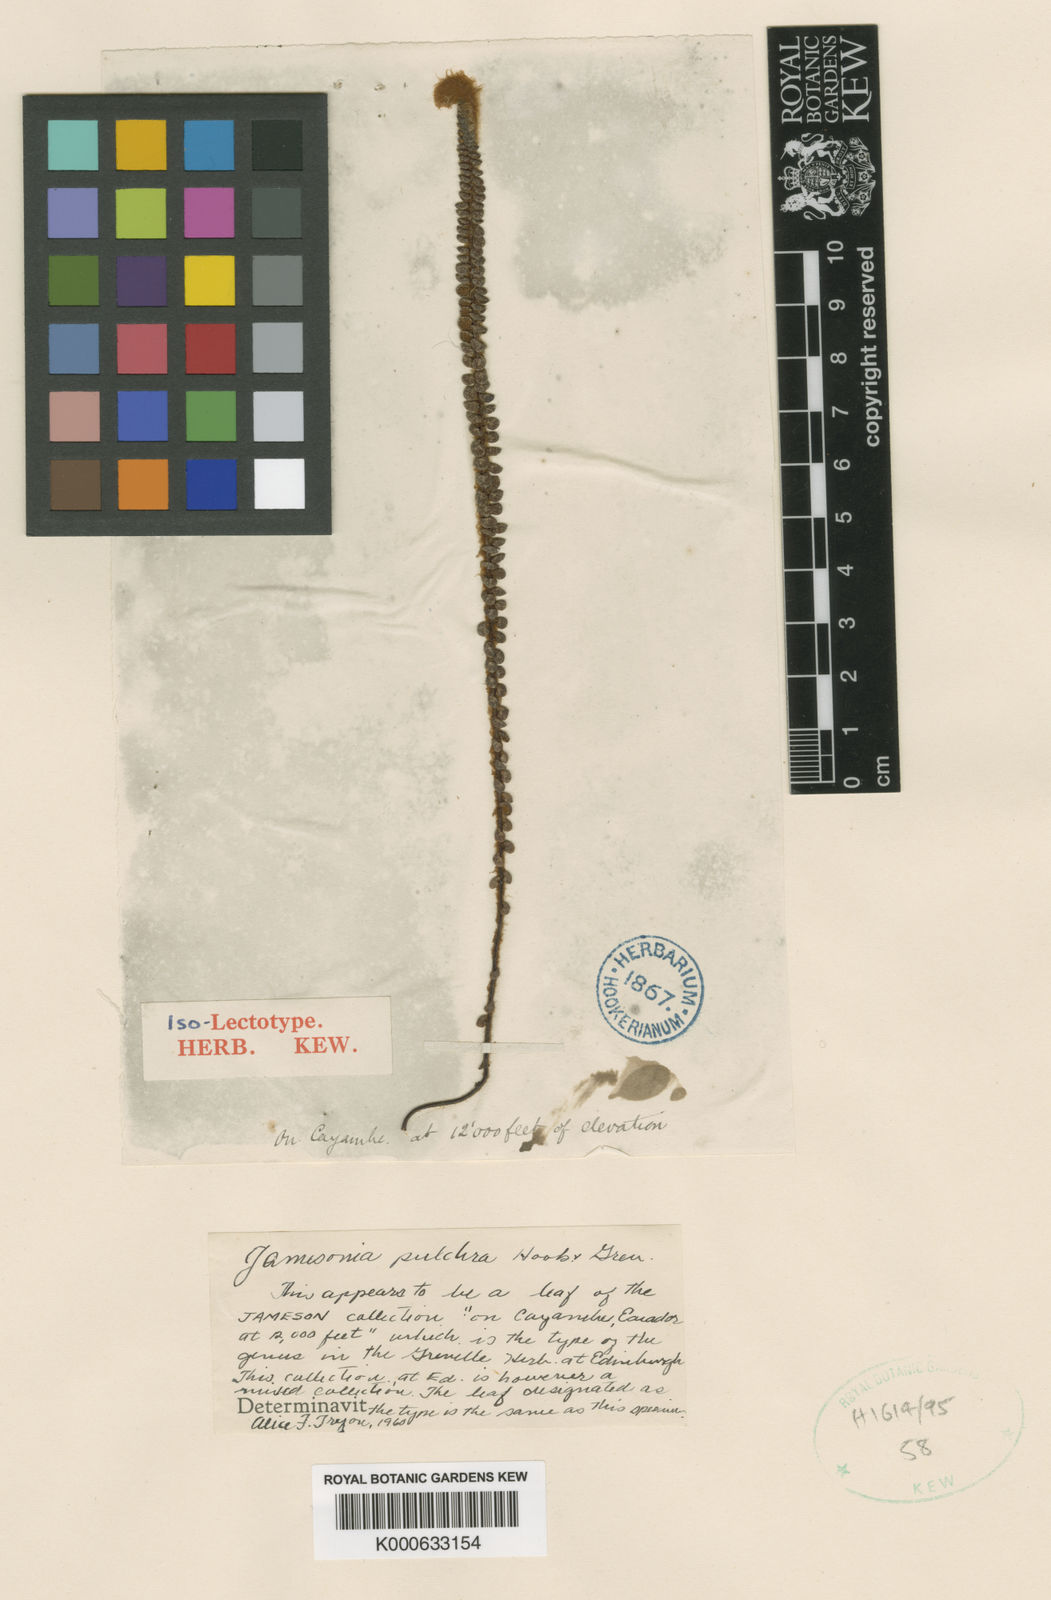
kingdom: Plantae
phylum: Tracheophyta
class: Polypodiopsida
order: Polypodiales
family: Pteridaceae
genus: Jamesonia
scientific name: Jamesonia pulchra
